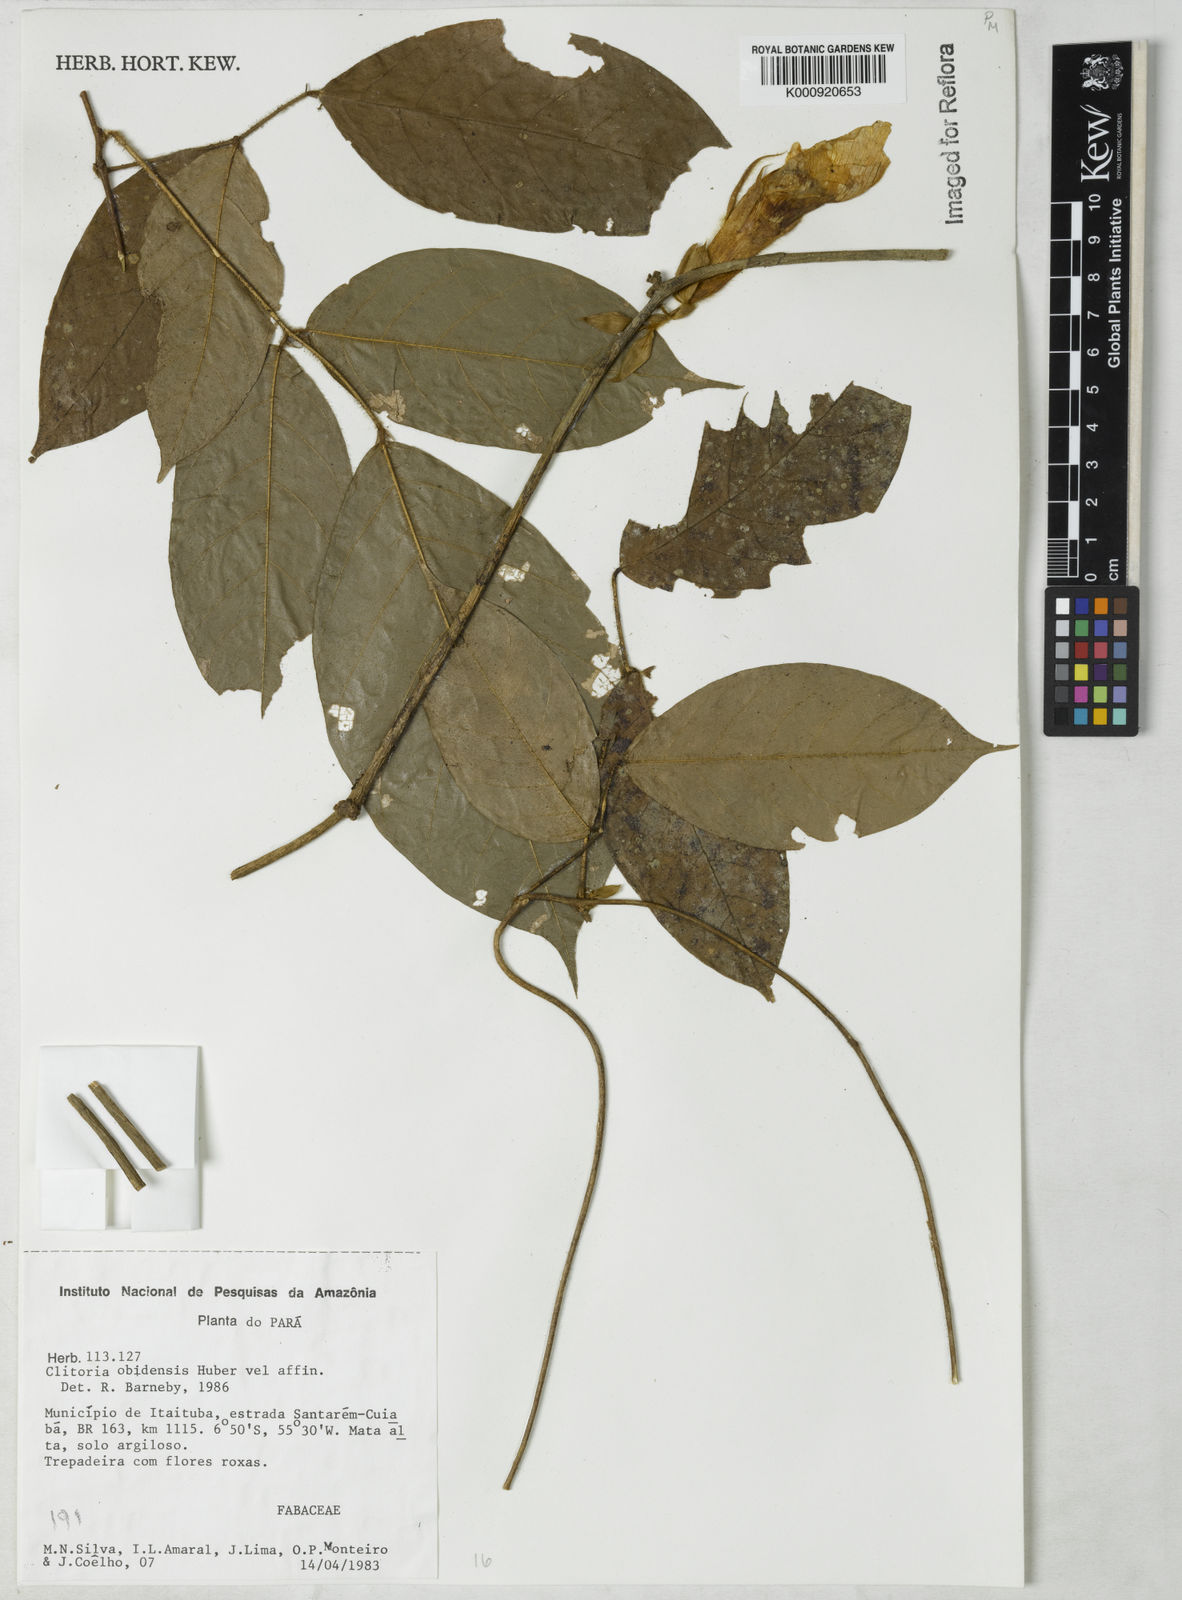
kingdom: Plantae
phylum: Tracheophyta
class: Magnoliopsida
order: Fabales
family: Fabaceae
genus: Clitoria
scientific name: Clitoria obidensis
